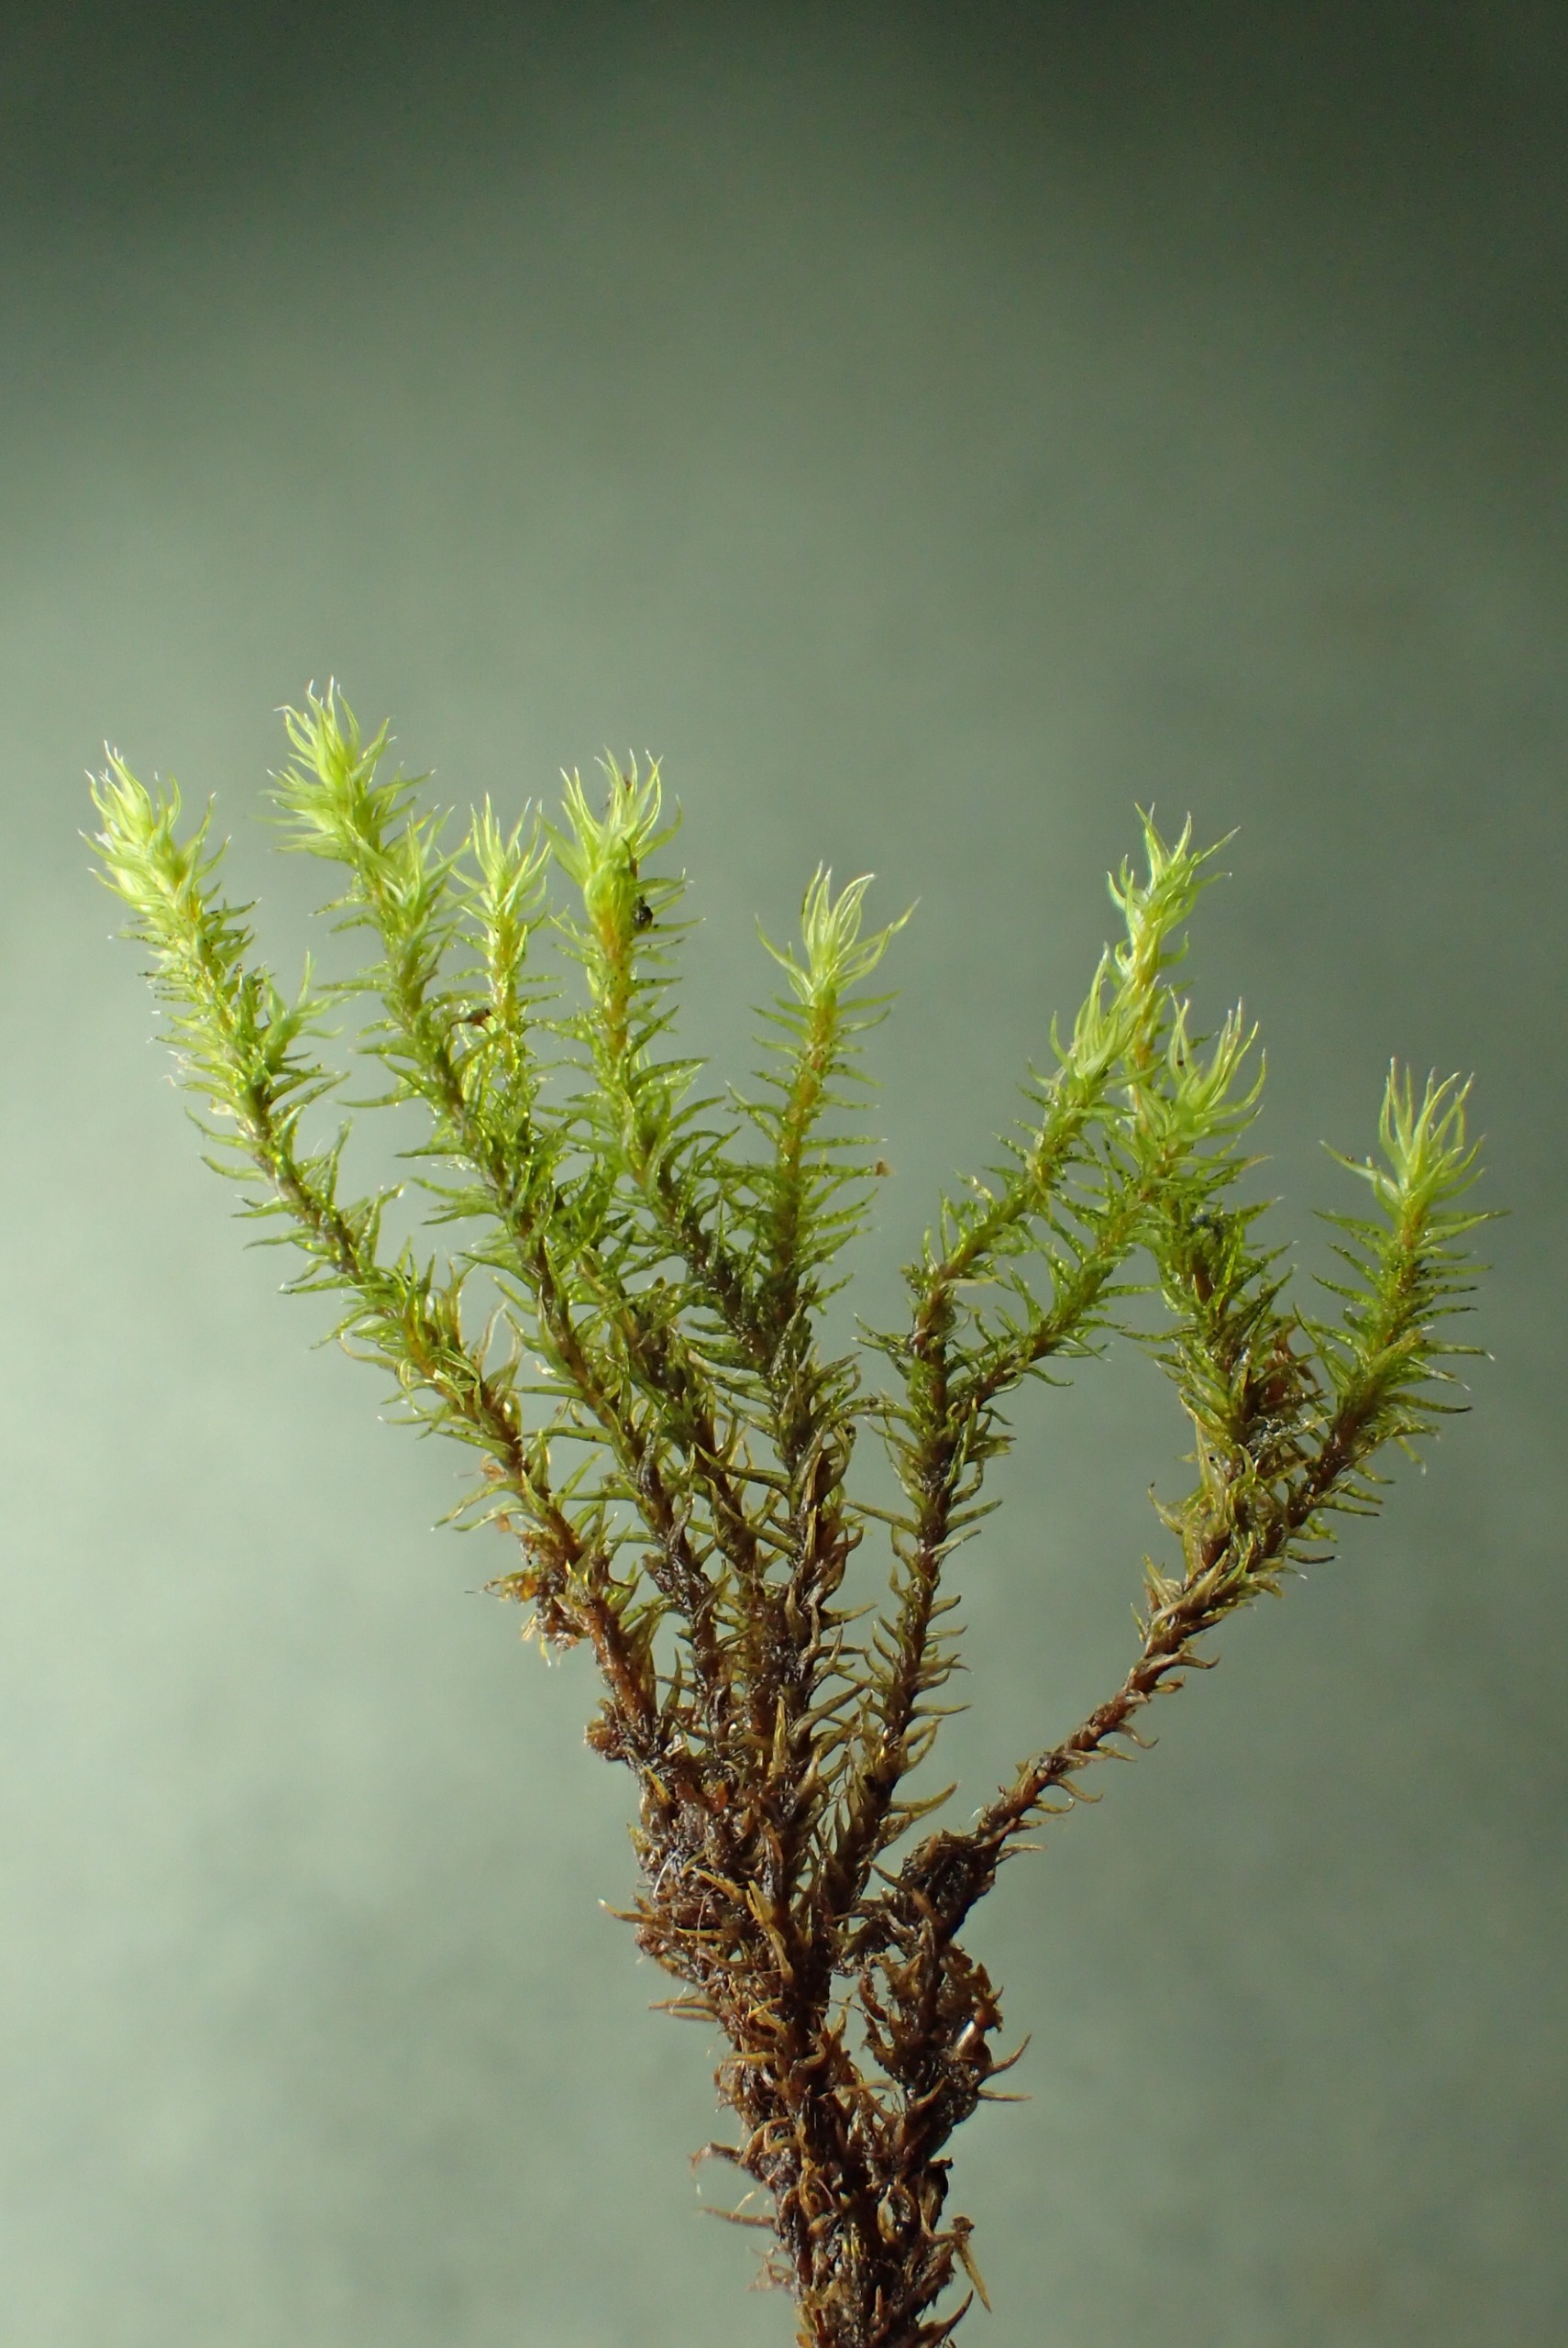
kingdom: Plantae
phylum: Bryophyta
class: Bryopsida
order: Grimmiales
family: Grimmiaceae
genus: Bucklandiella
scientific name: Bucklandiella sudetica
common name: Sudeter-børstemos
